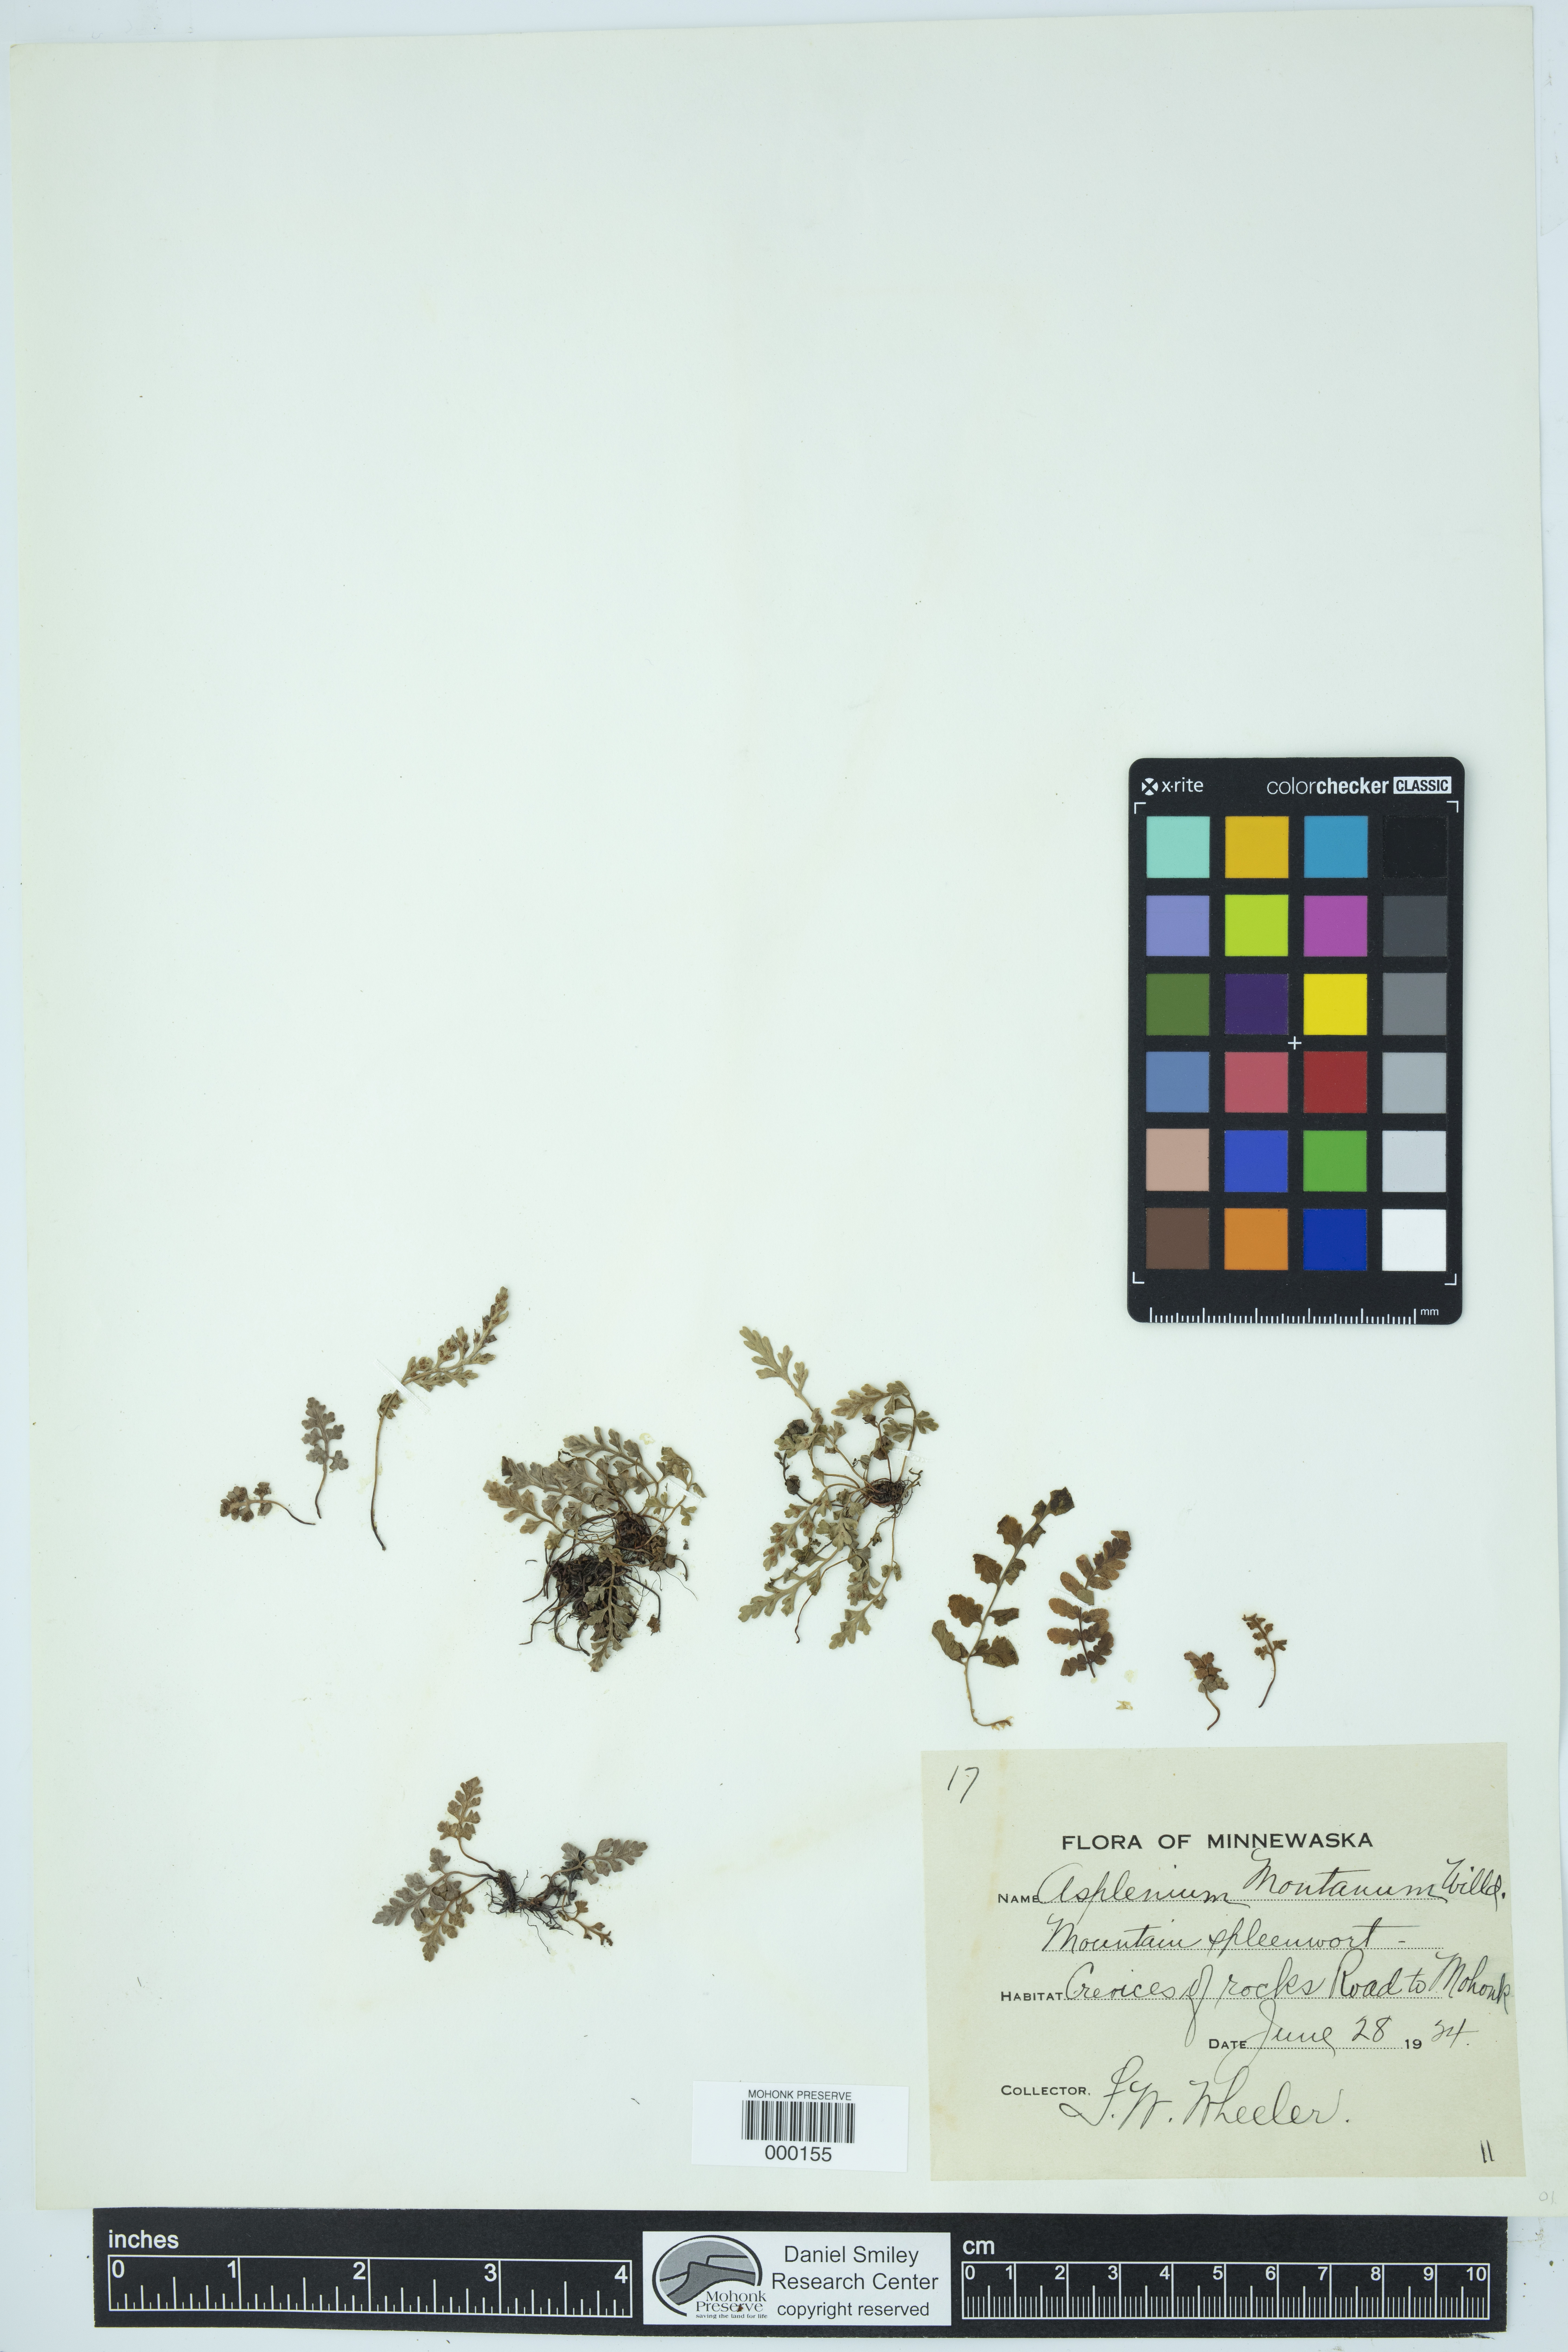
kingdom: Plantae
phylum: Tracheophyta
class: Polypodiopsida
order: Polypodiales
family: Aspleniaceae
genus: Asplenium
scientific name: Asplenium montanum
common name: Mountain spleenwort
